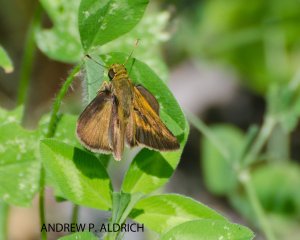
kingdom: Animalia
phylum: Arthropoda
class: Insecta
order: Lepidoptera
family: Hesperiidae
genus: Polites
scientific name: Polites
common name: Crossline Skipper
